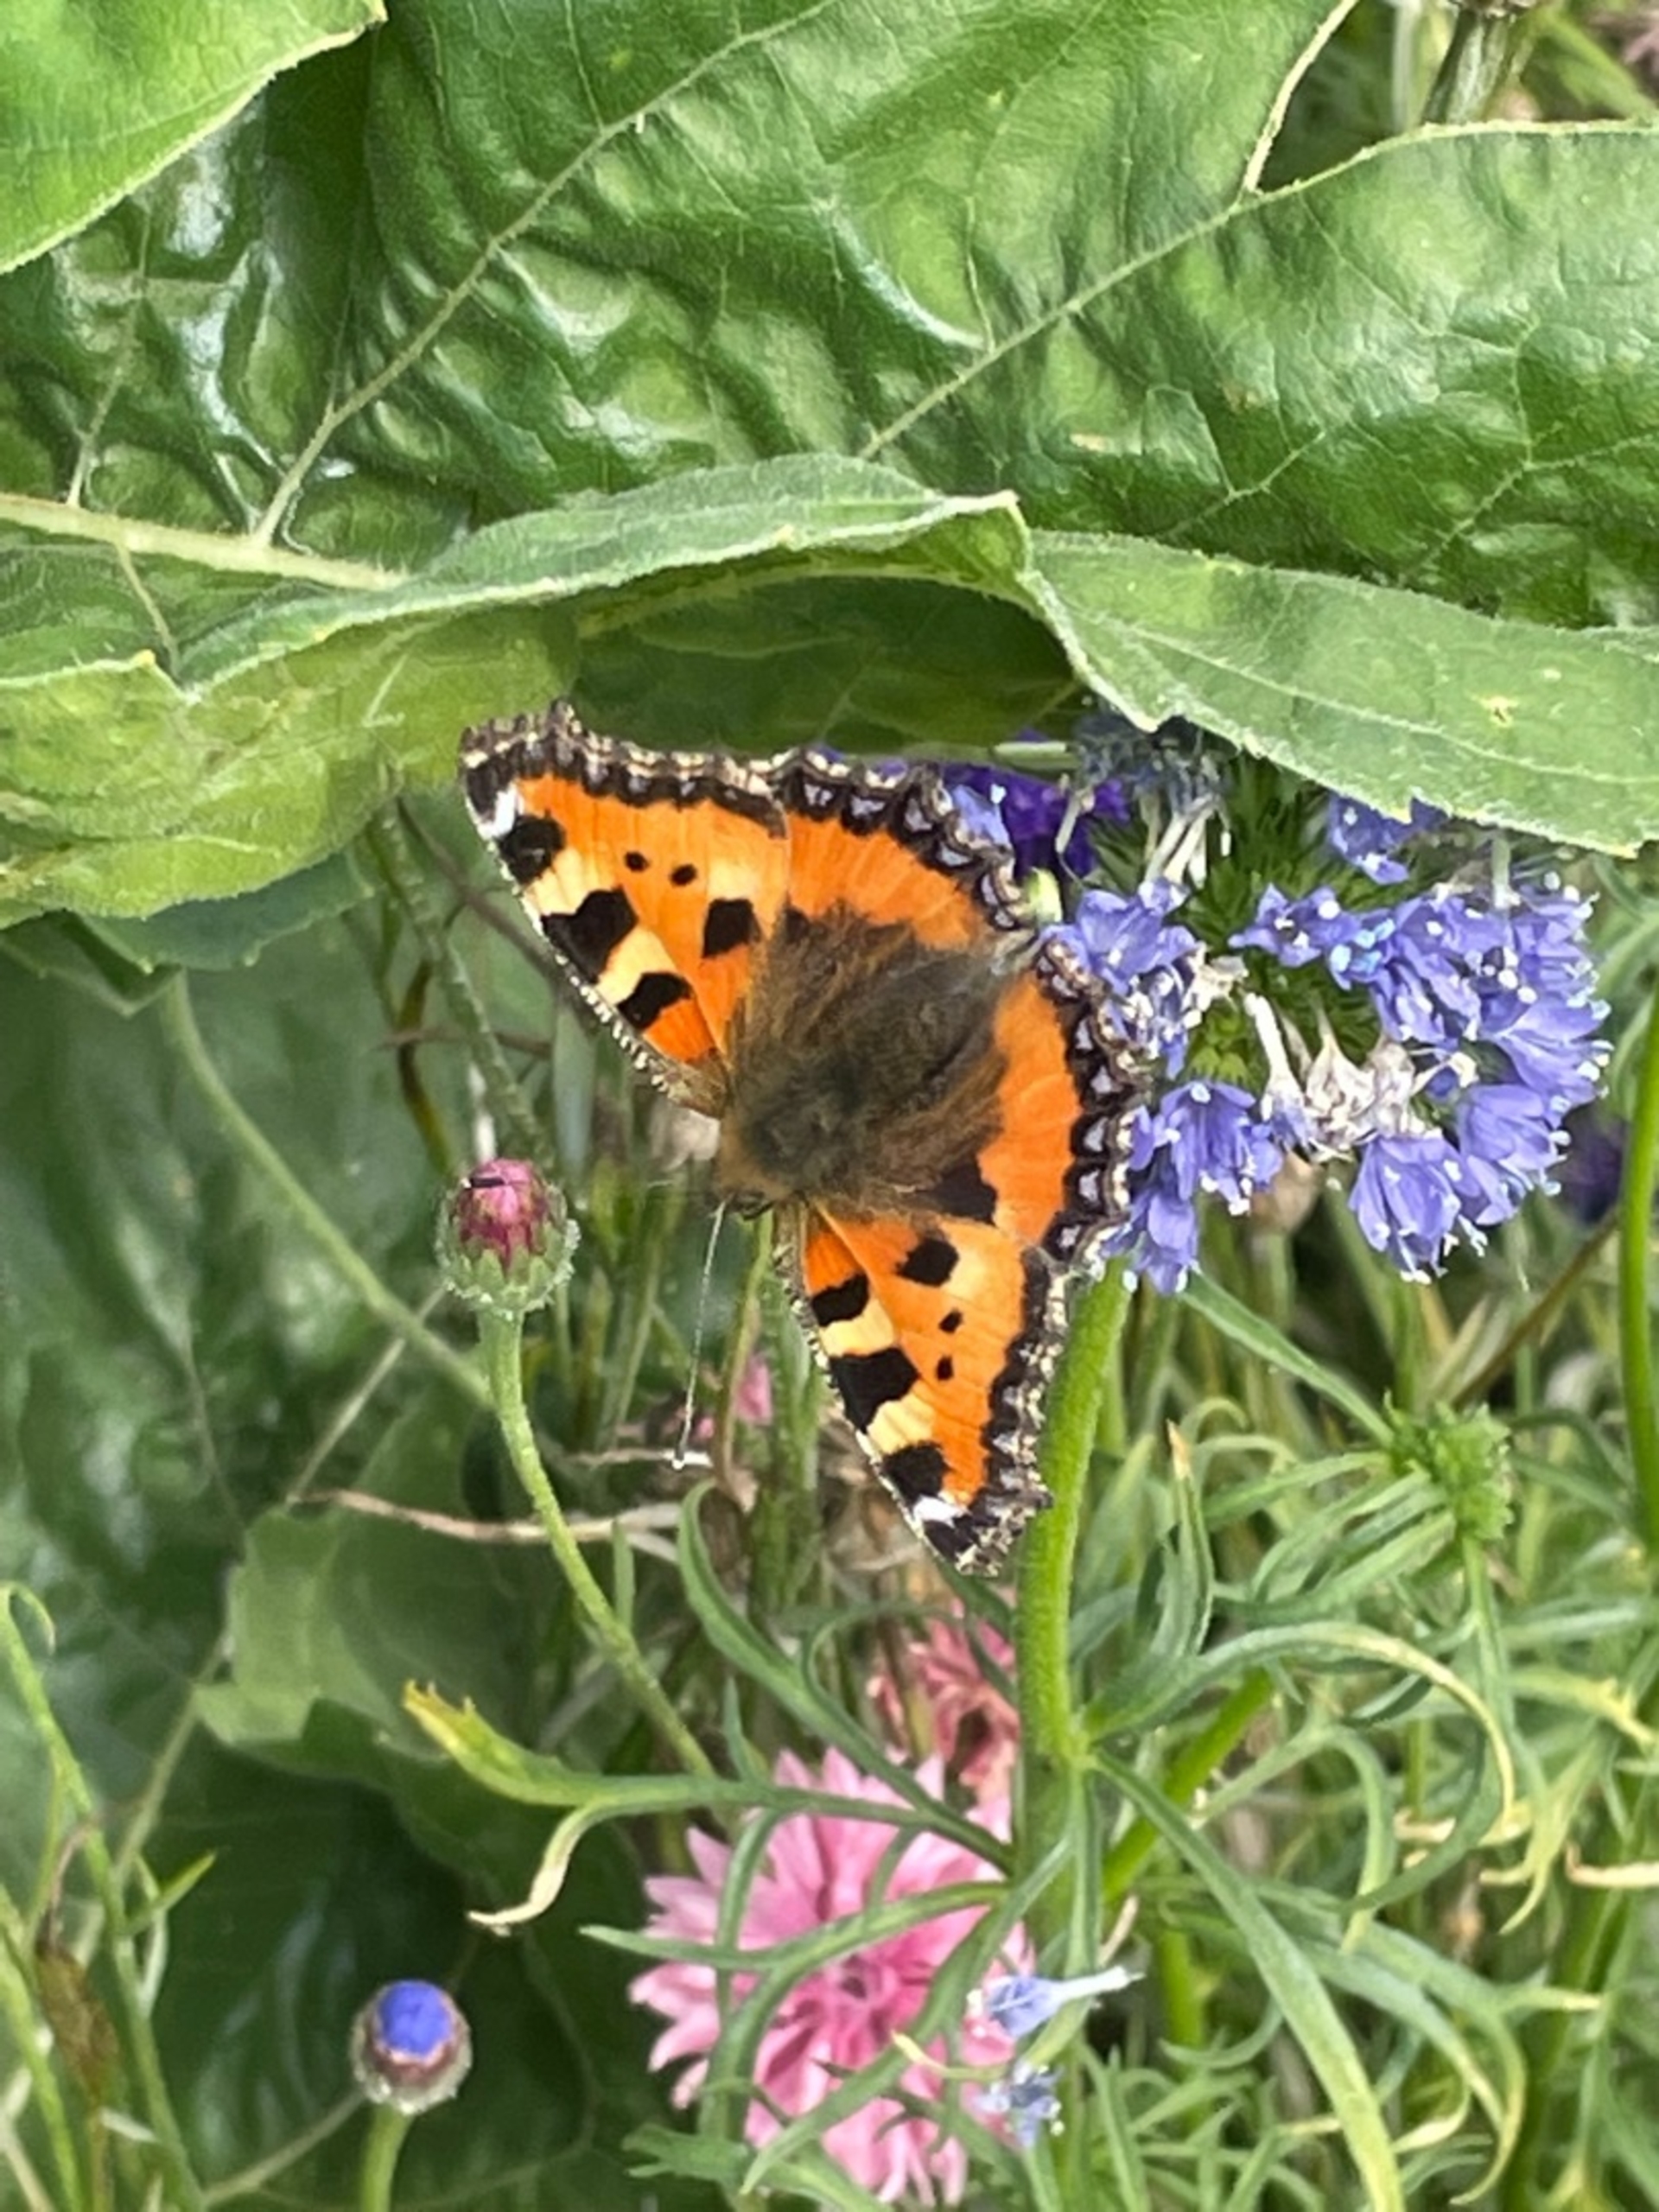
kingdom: Animalia
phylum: Arthropoda
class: Insecta
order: Lepidoptera
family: Nymphalidae
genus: Aglais
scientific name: Aglais urticae
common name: Nældens takvinge
